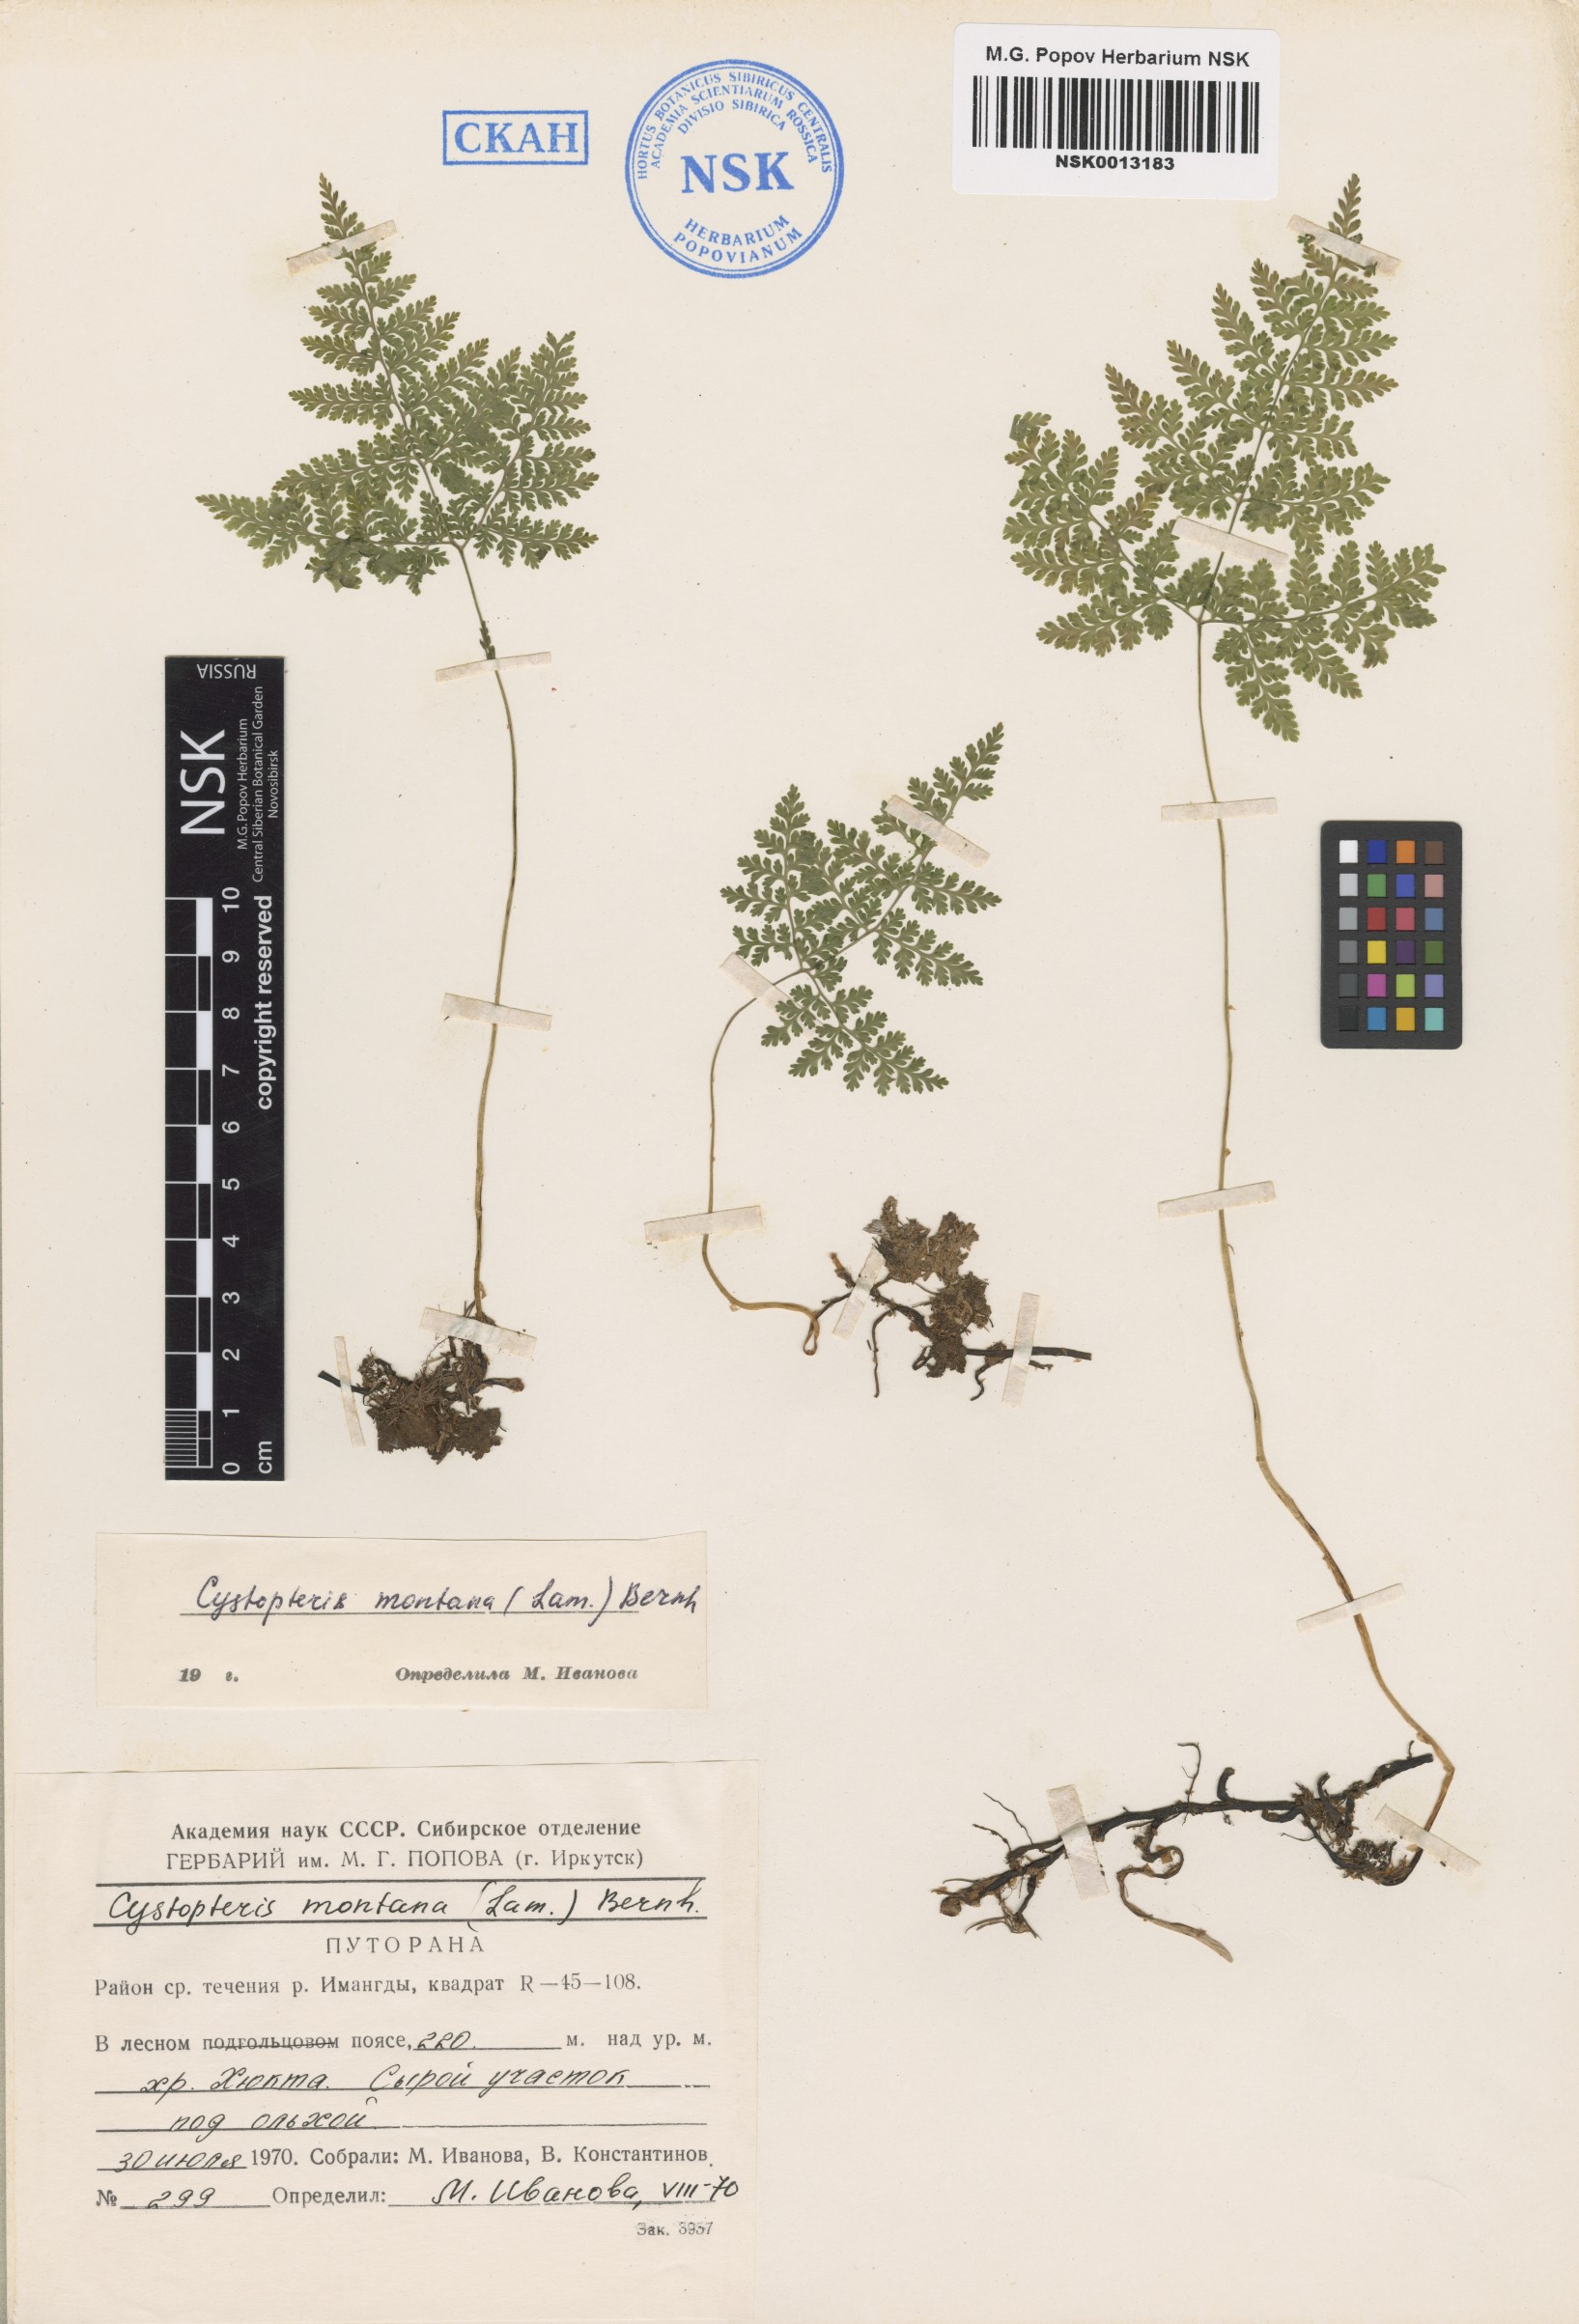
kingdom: Plantae
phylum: Tracheophyta
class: Polypodiopsida
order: Polypodiales
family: Cystopteridaceae
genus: Cystopteris
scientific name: Cystopteris montana
